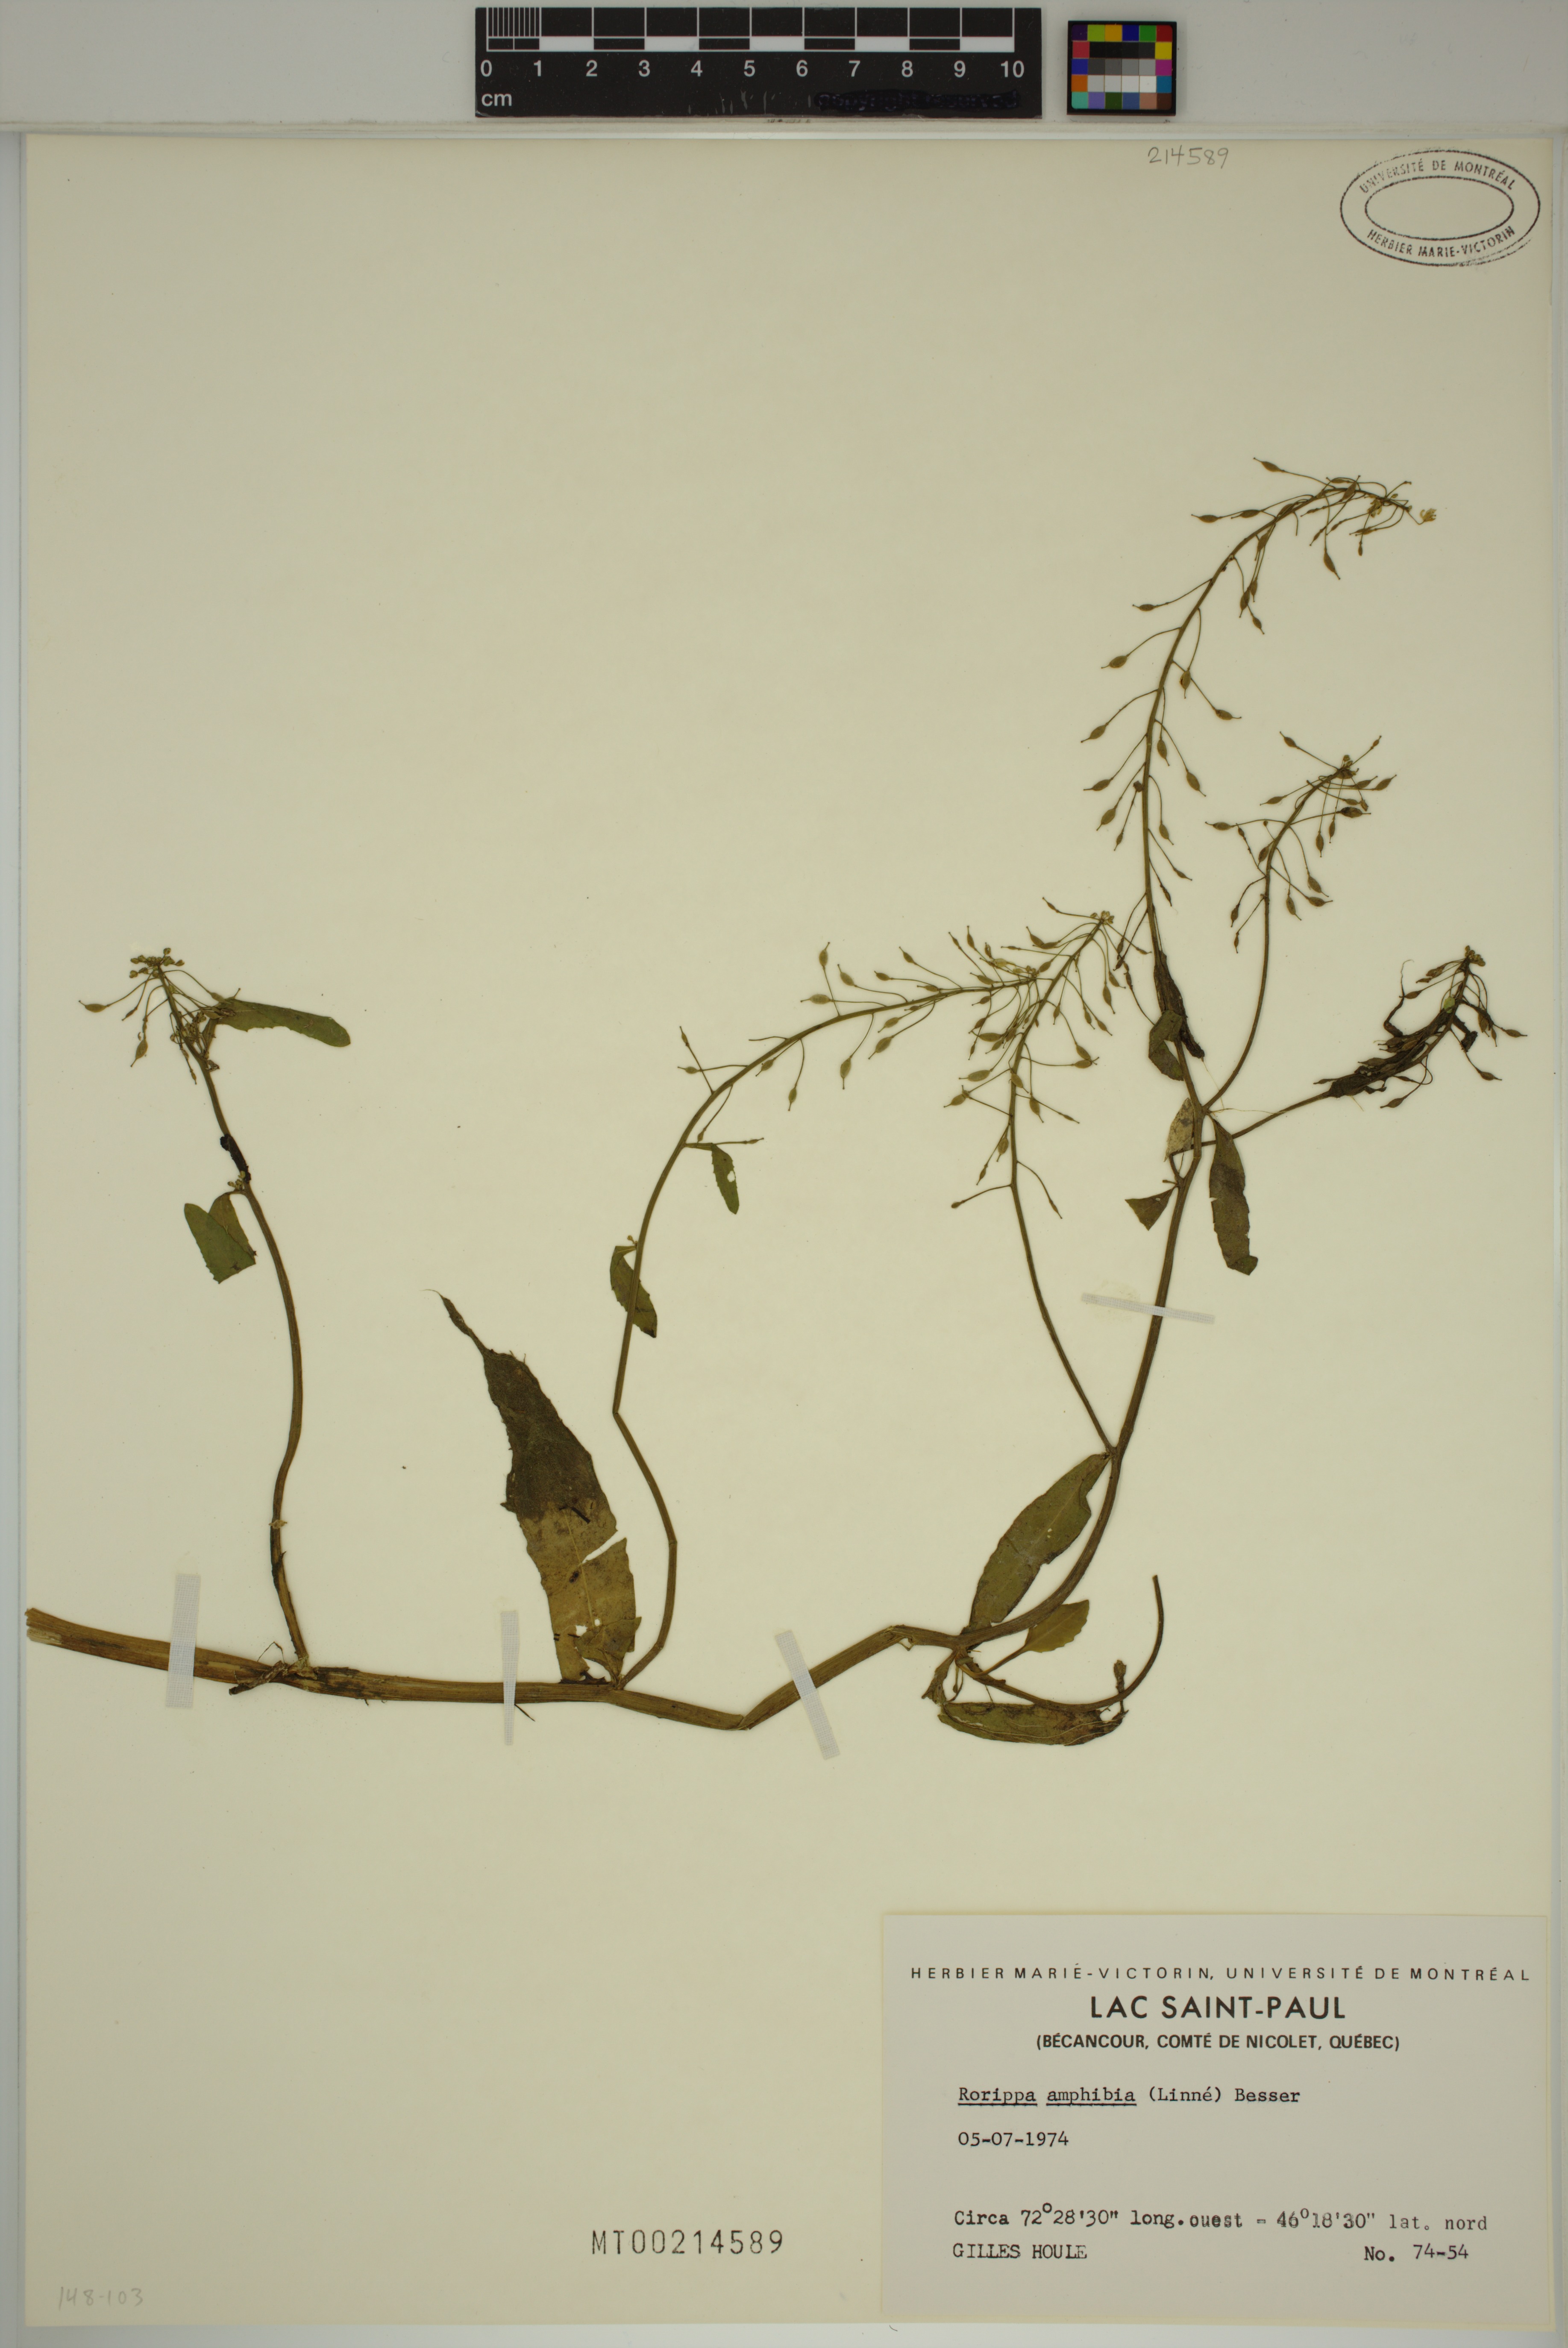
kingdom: Plantae
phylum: Tracheophyta
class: Magnoliopsida
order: Brassicales
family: Brassicaceae
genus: Rorippa
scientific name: Rorippa amphibia
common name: Great yellow-cress
